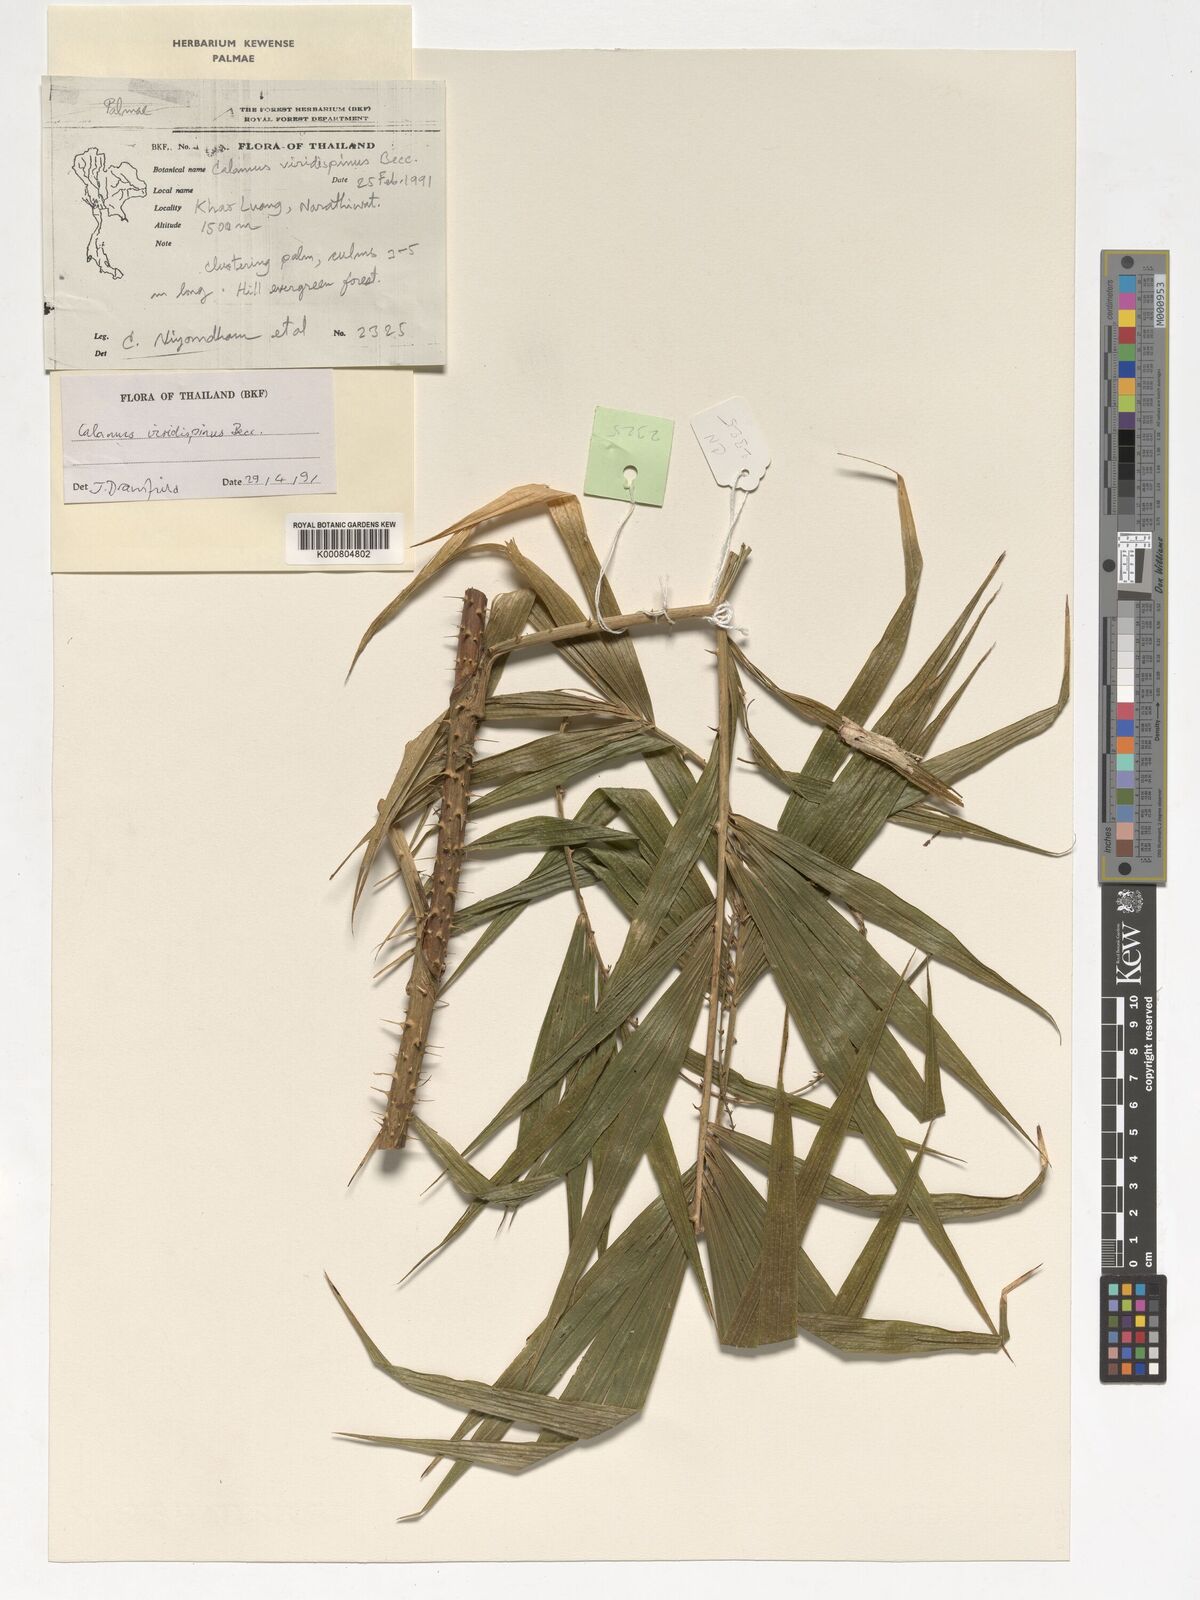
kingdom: Plantae
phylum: Tracheophyta
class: Liliopsida
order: Arecales
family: Arecaceae
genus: Calamus
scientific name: Calamus helferianus
